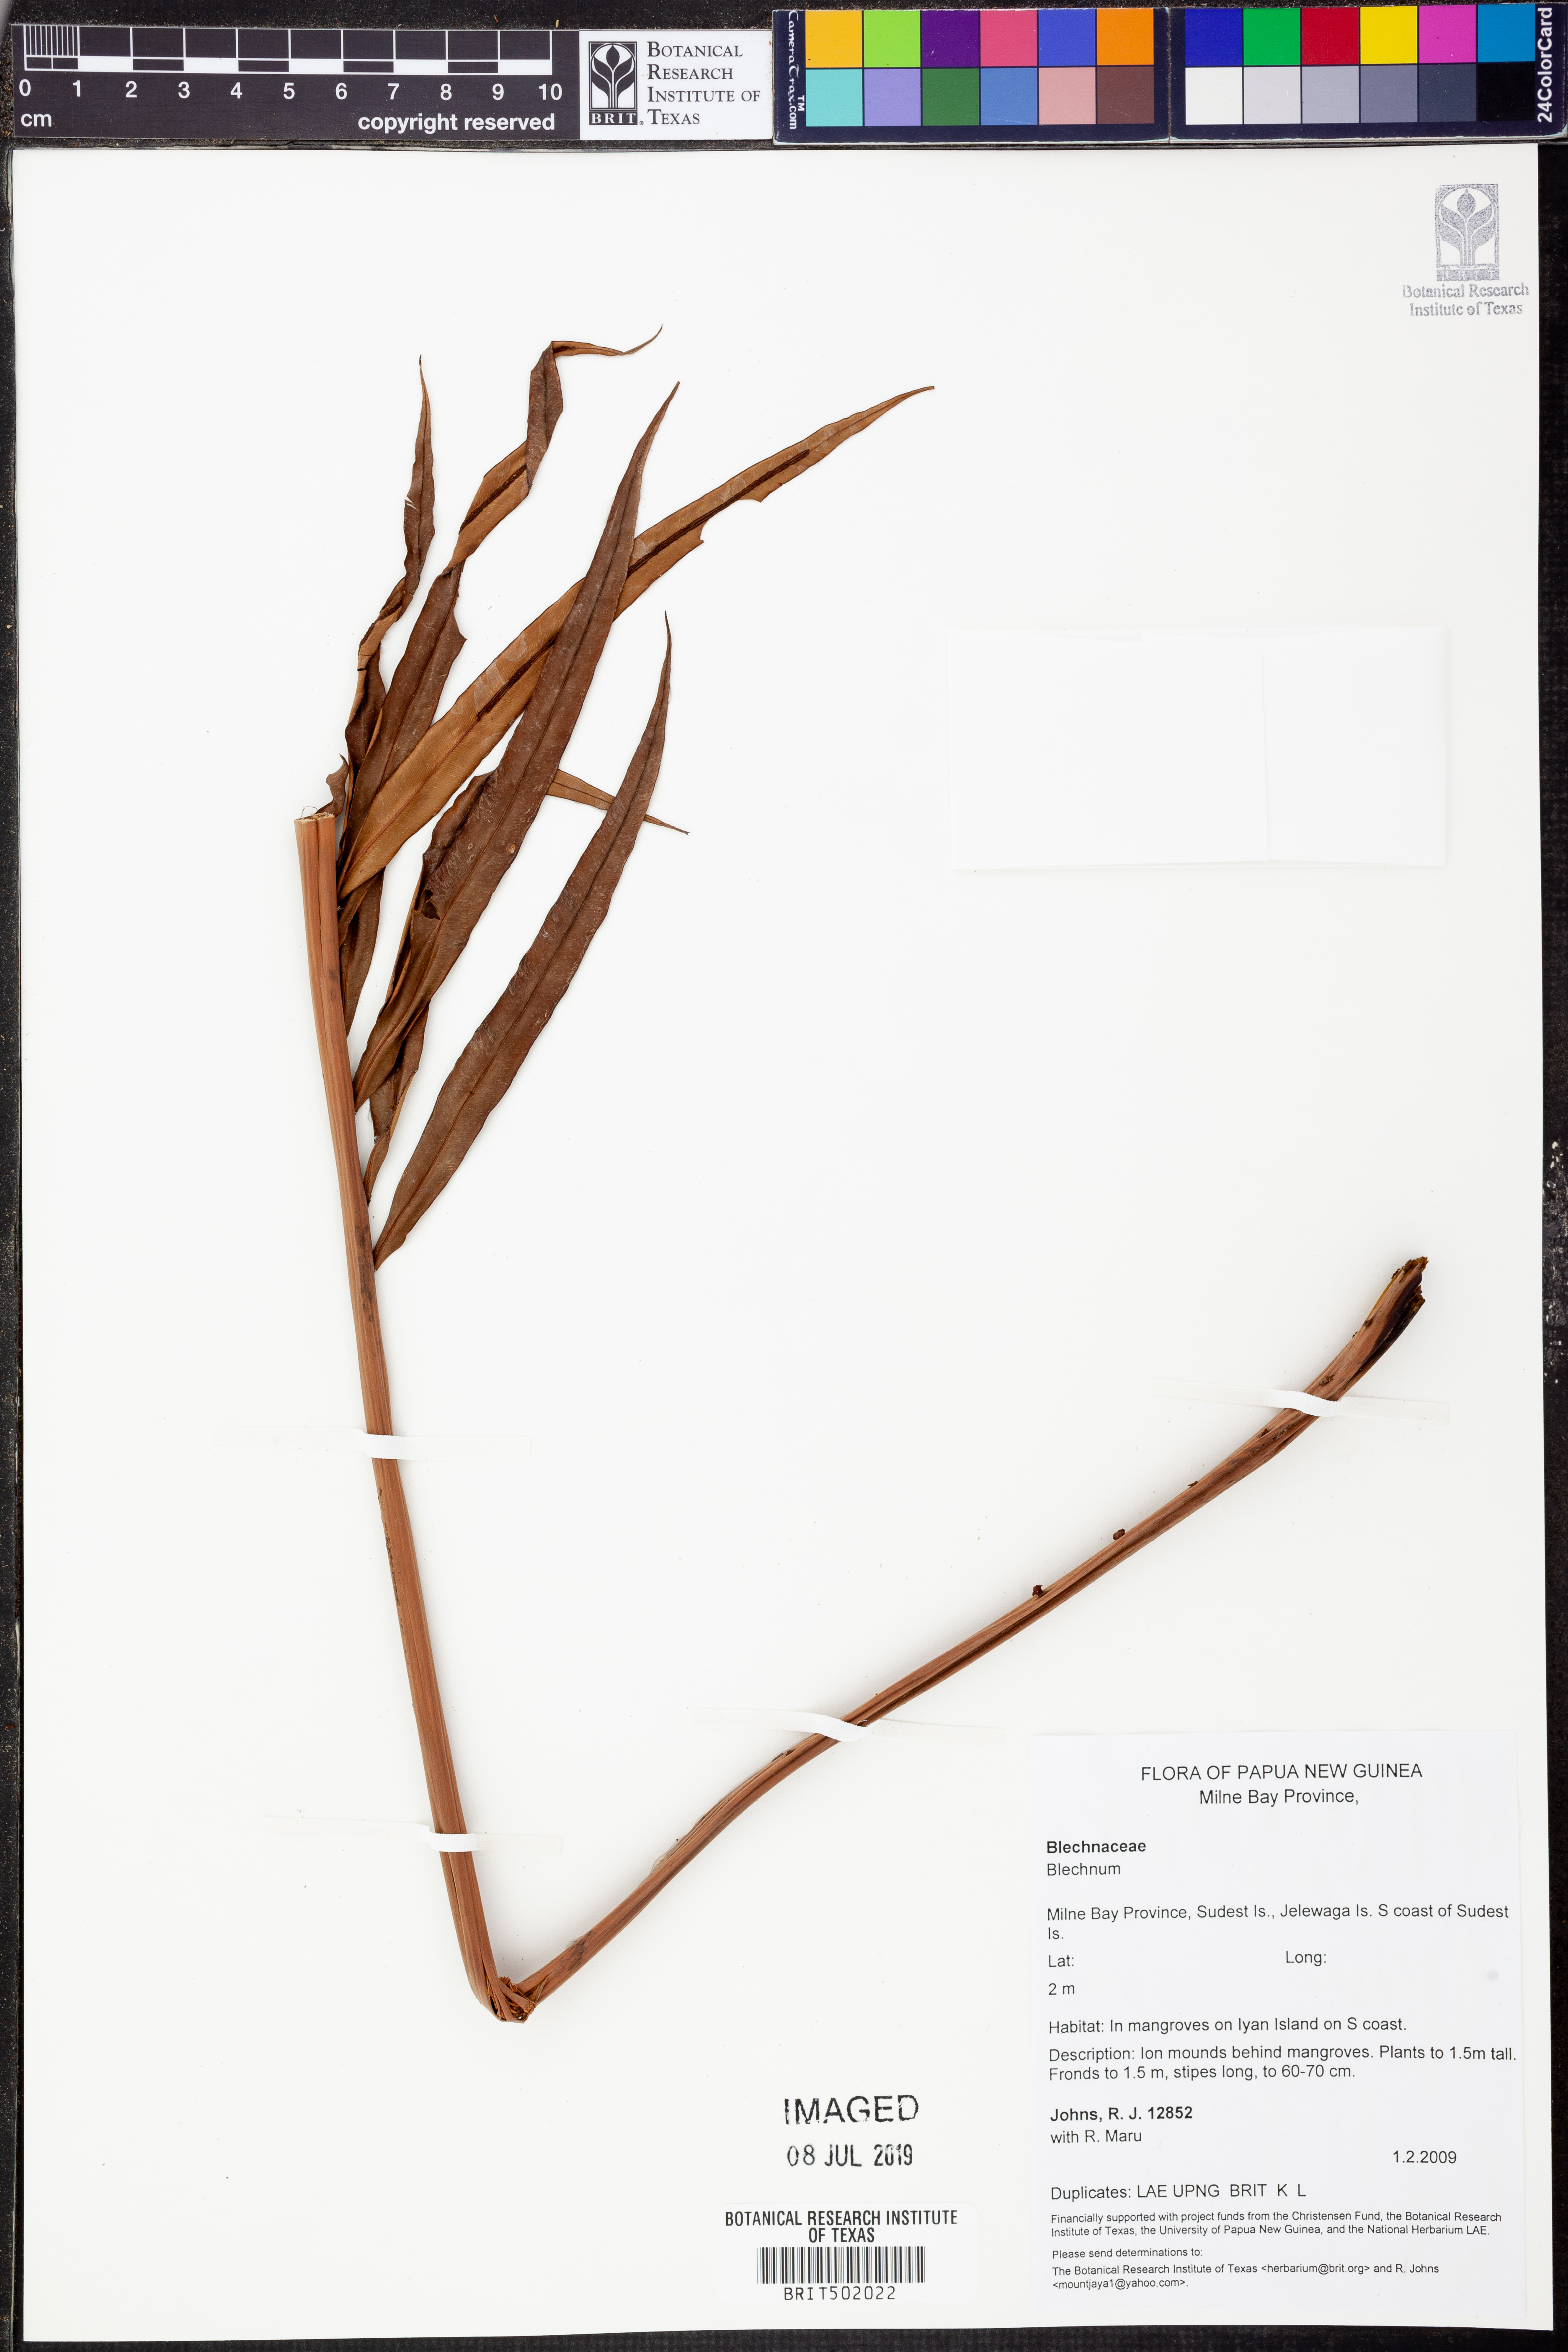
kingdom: Plantae
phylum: Tracheophyta
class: Polypodiopsida
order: Polypodiales
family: Blechnaceae
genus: Blechnum
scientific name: Blechnum
